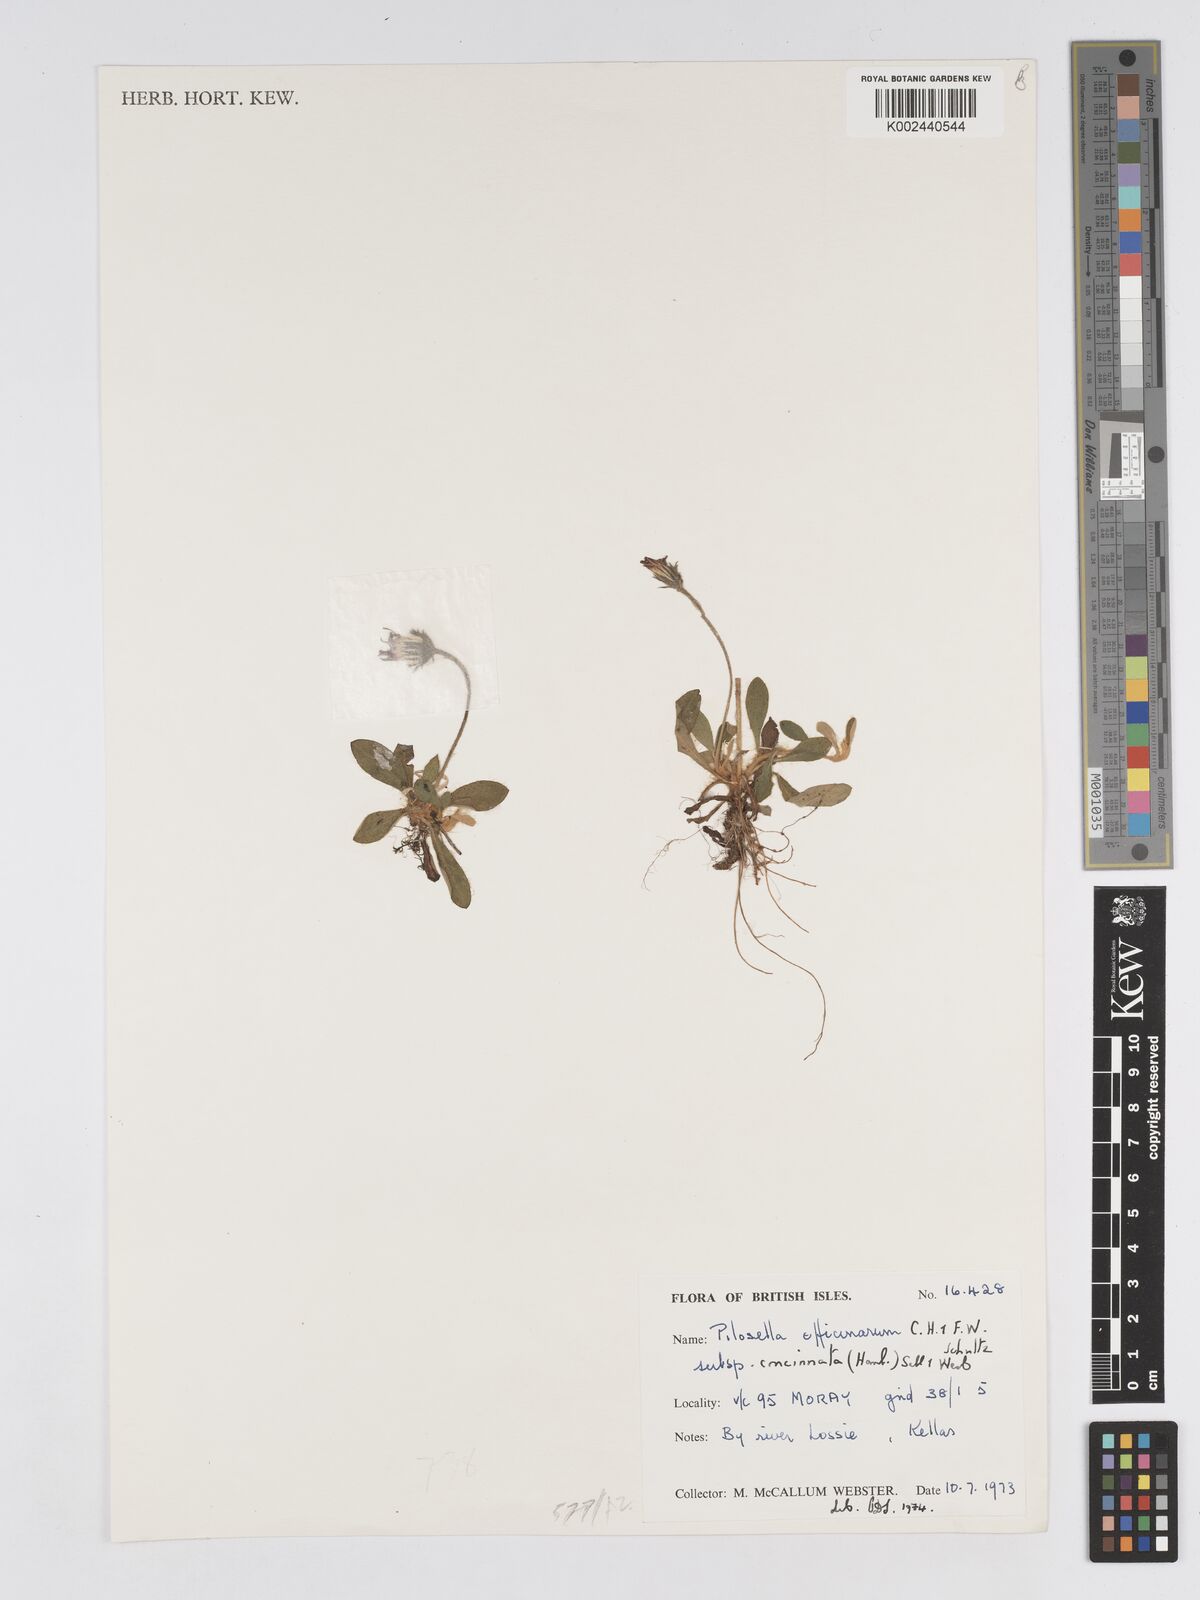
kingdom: Plantae
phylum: Tracheophyta
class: Magnoliopsida
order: Asterales
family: Asteraceae
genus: Pilosella
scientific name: Pilosella officinarum
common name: Mouse-ear hawkweed
